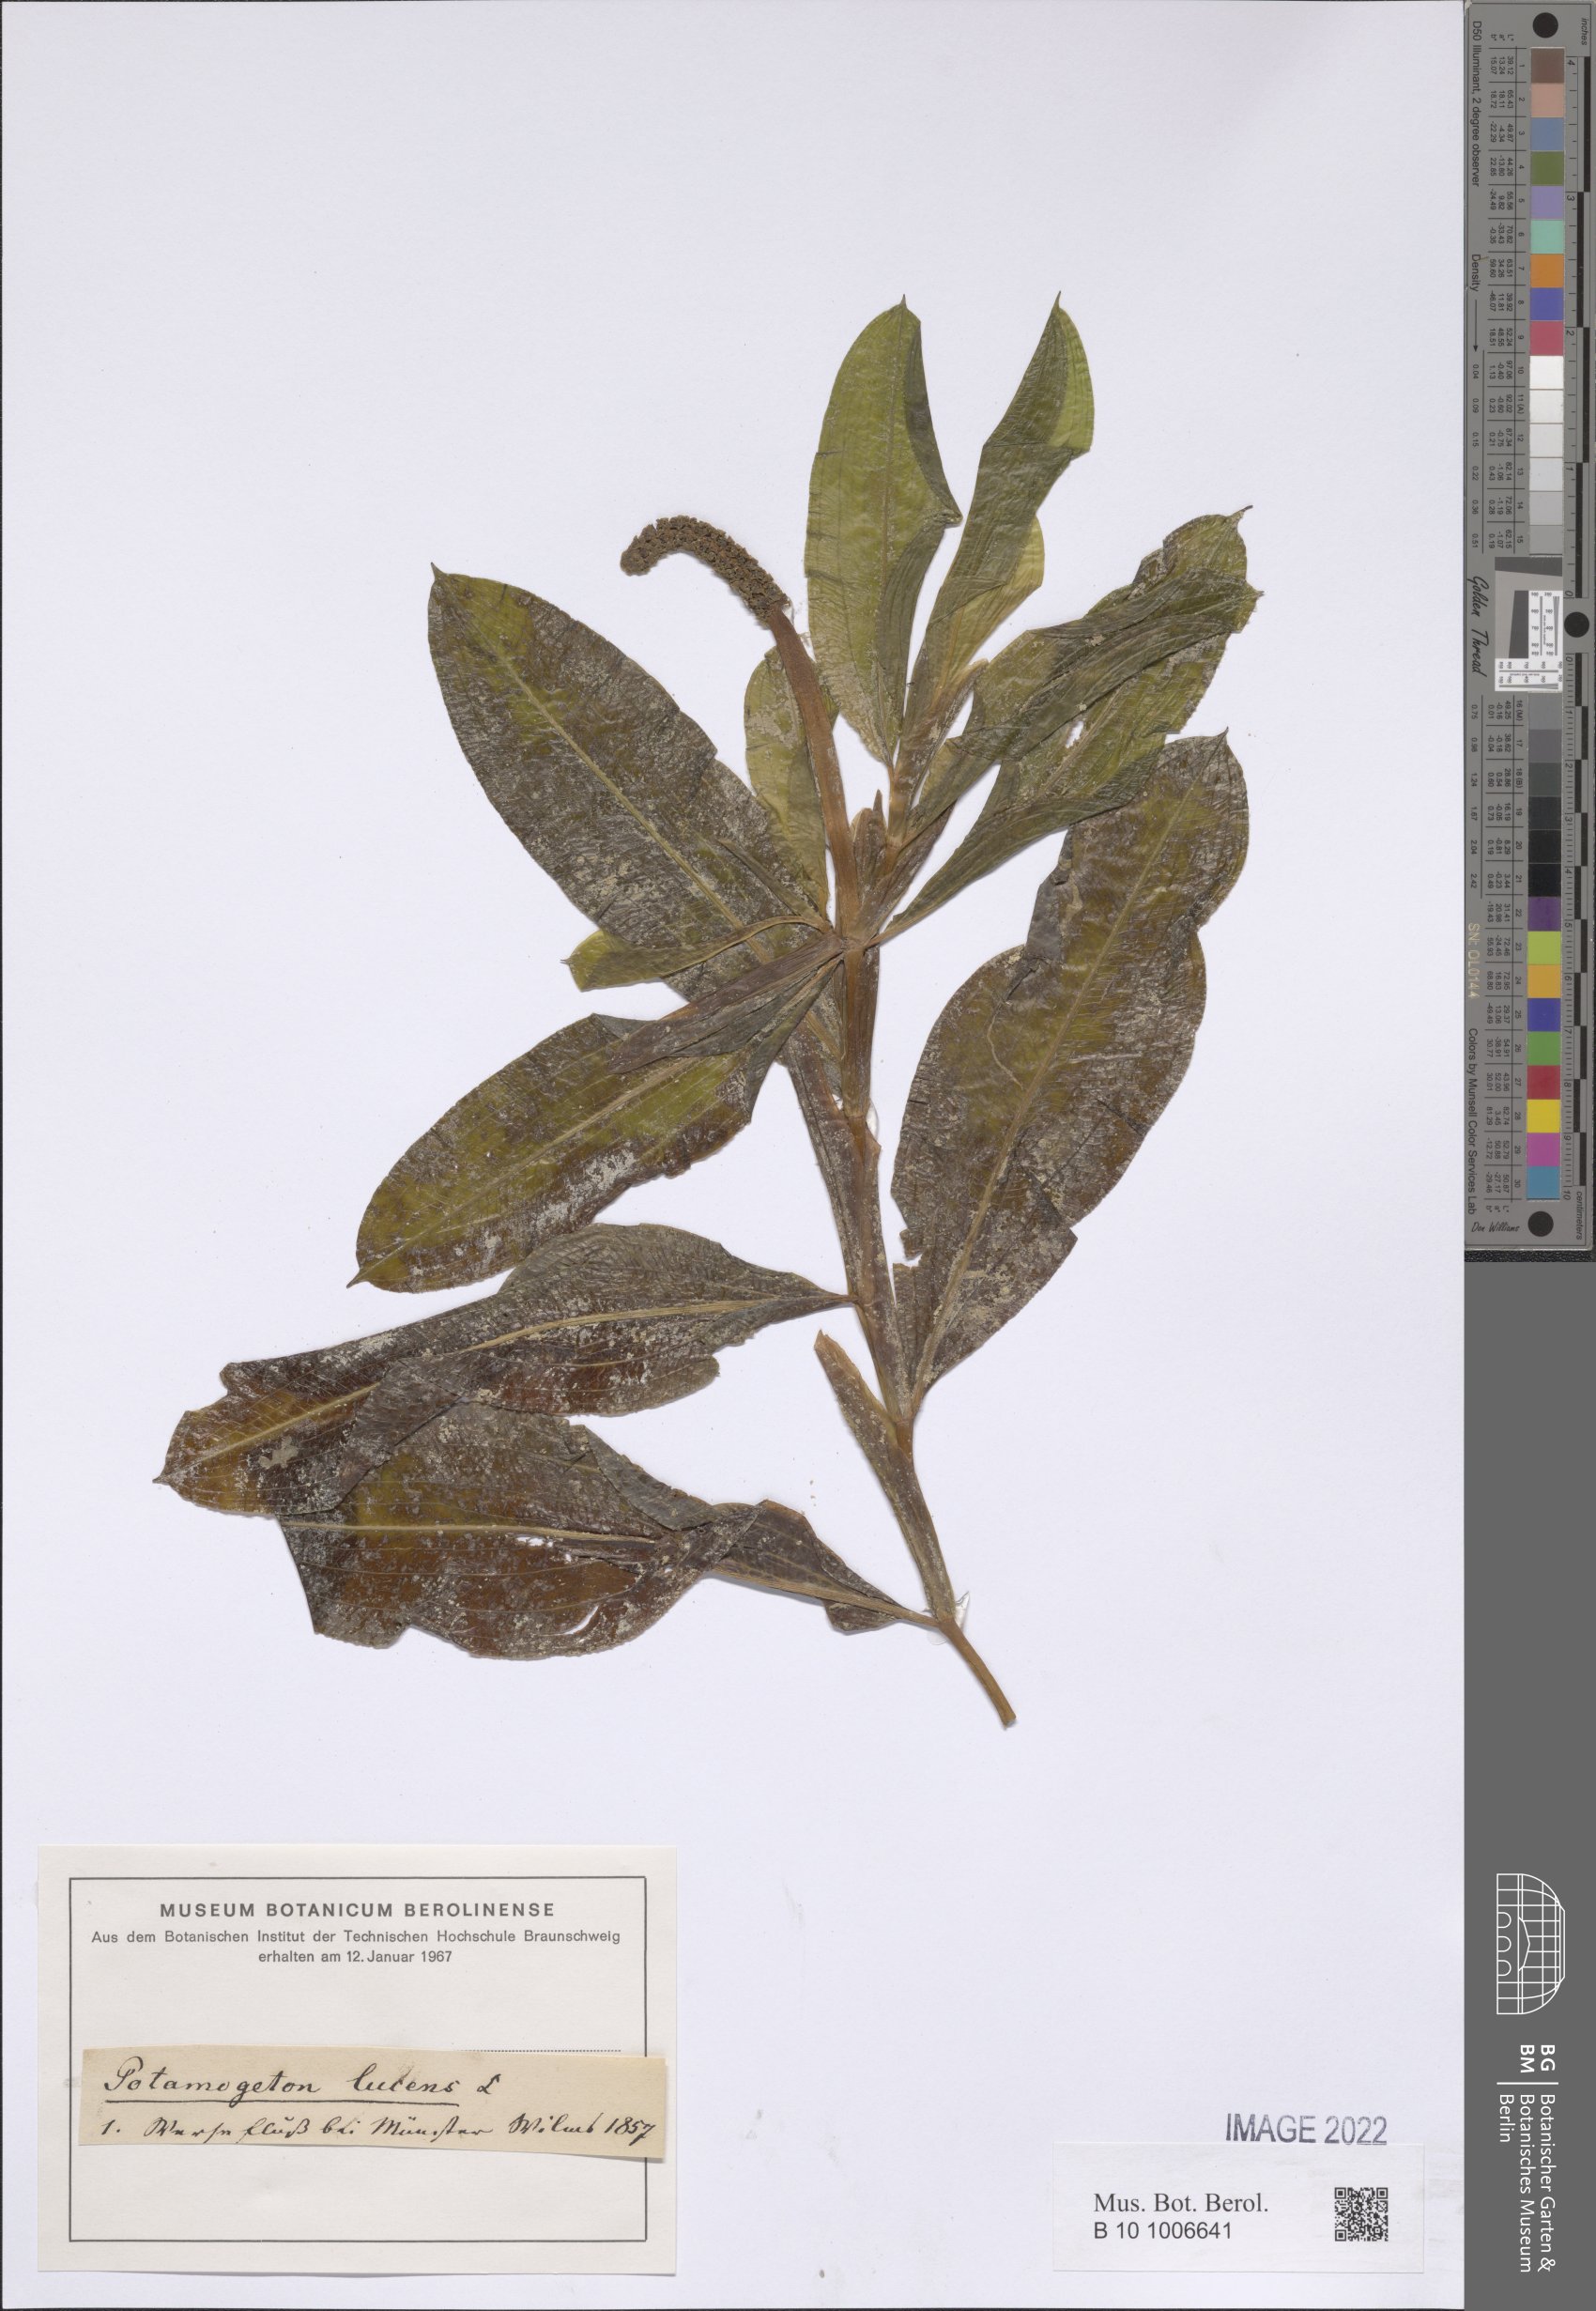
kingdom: Plantae
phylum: Tracheophyta
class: Liliopsida
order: Alismatales
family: Potamogetonaceae
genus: Potamogeton
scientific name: Potamogeton lucens
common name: Shining pondweed
